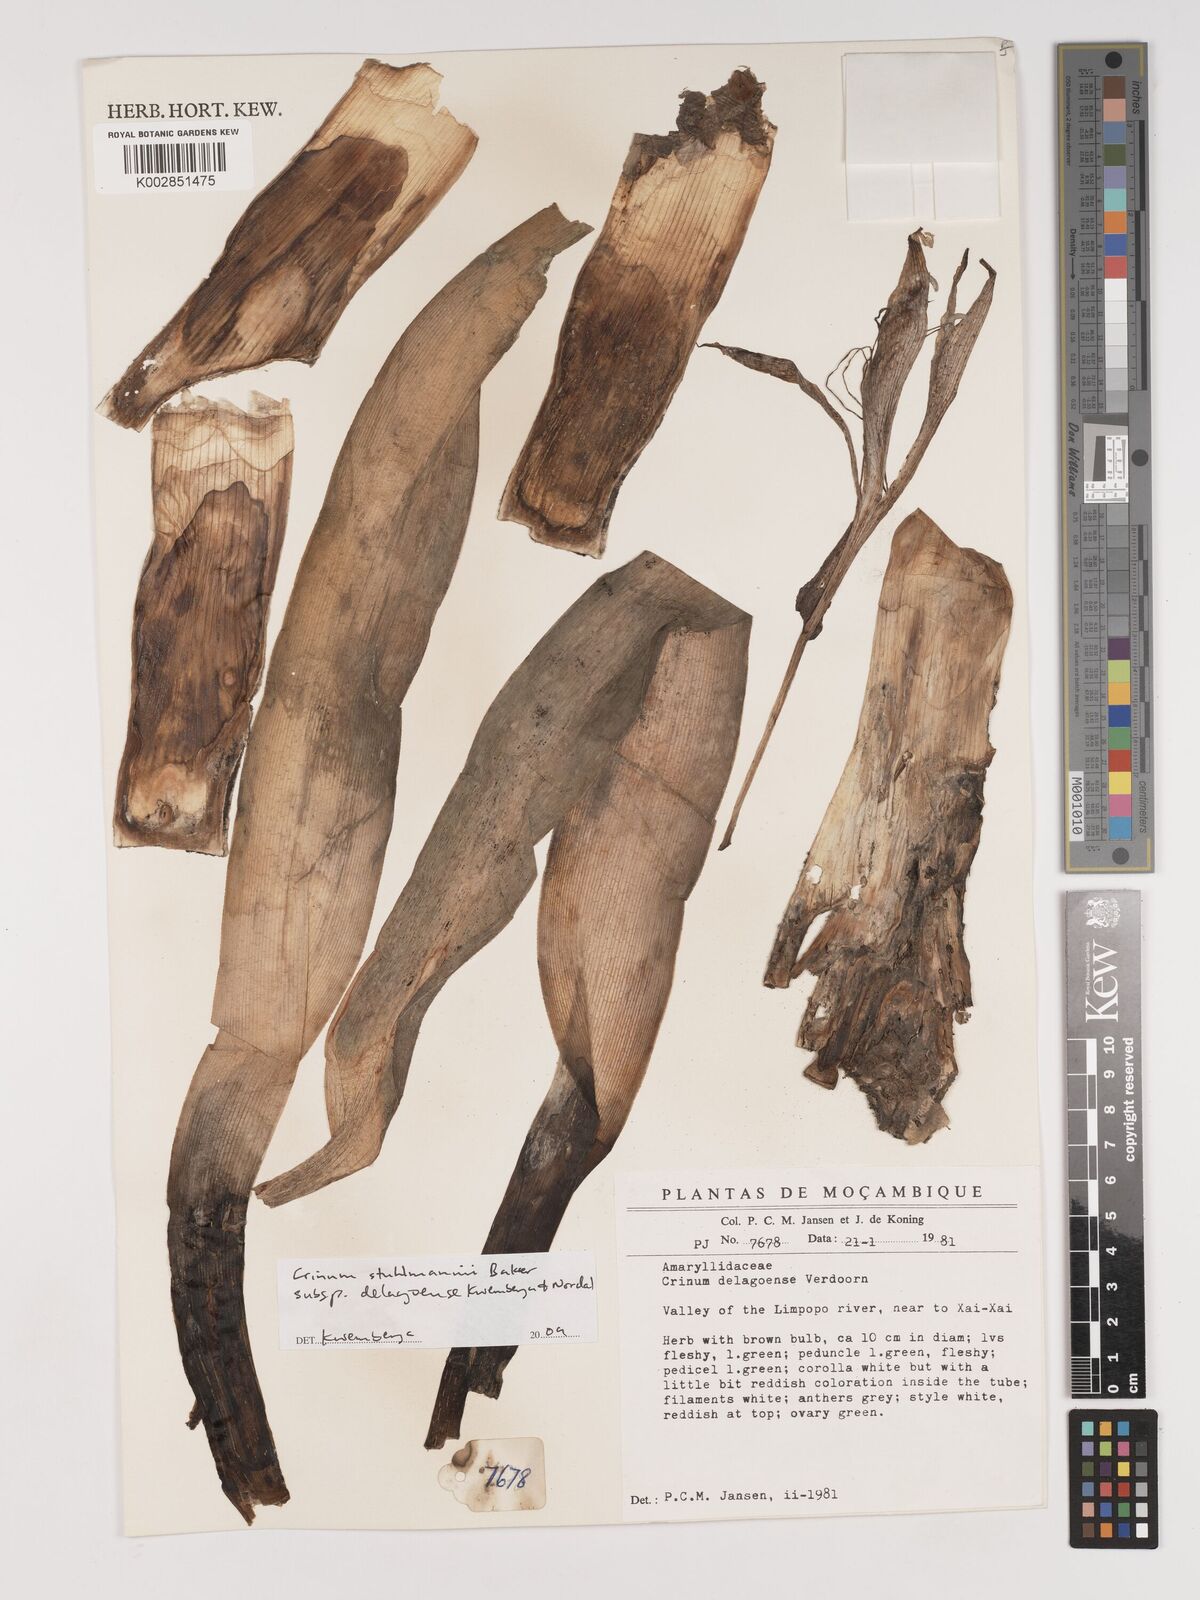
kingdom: Plantae
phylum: Tracheophyta
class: Liliopsida
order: Asparagales
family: Amaryllidaceae
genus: Crinum
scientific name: Crinum stuhlmannii
